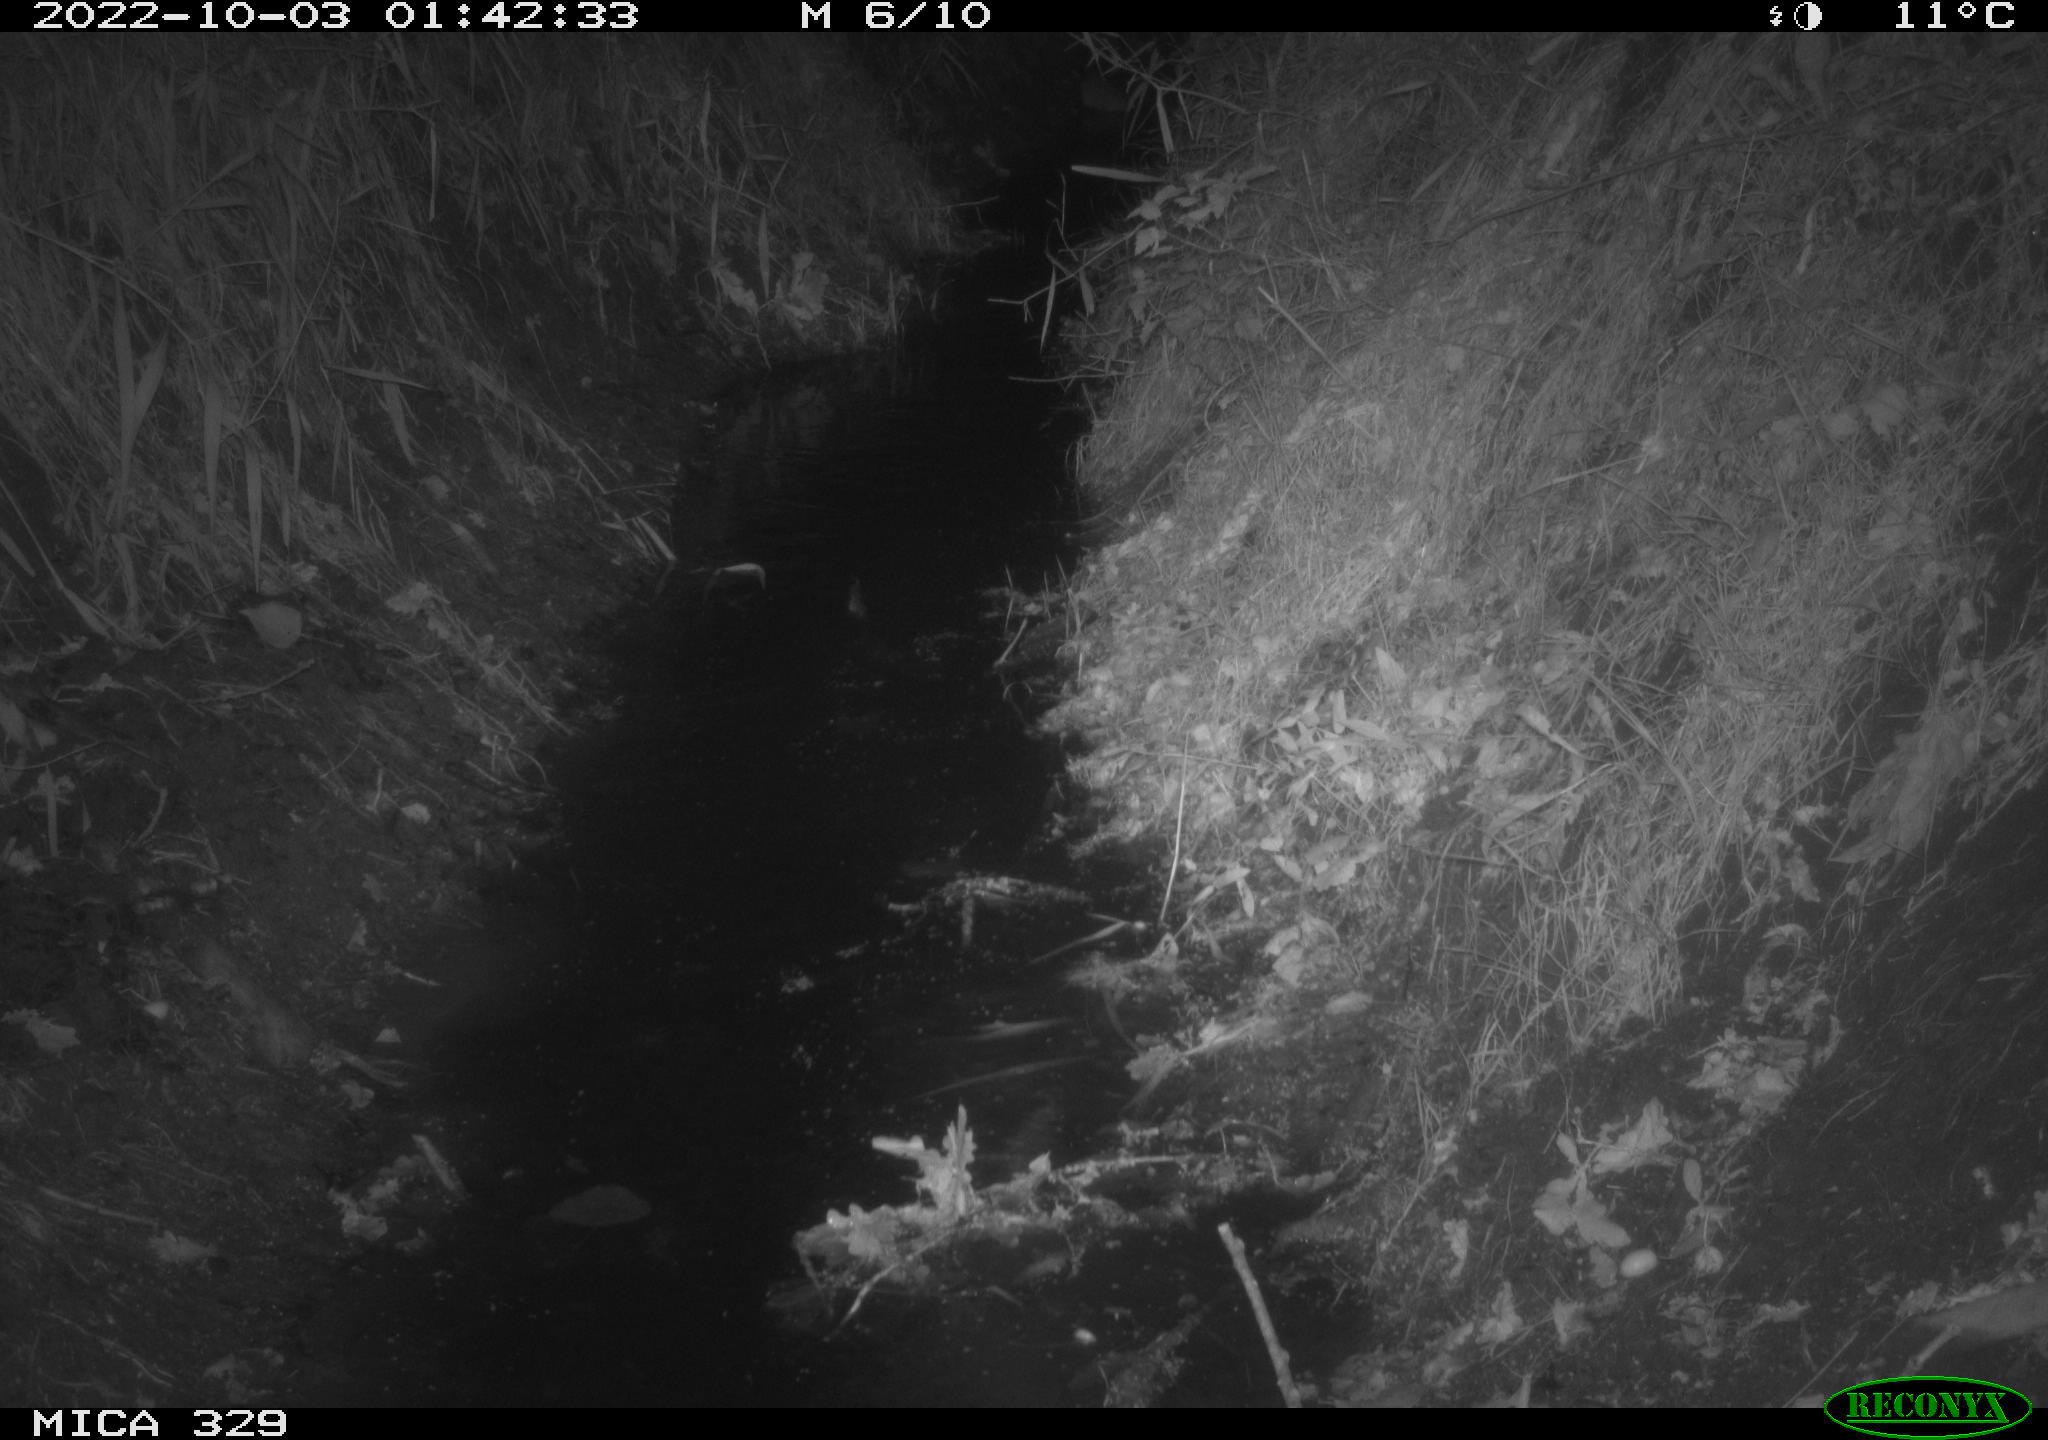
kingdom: Animalia
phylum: Chordata
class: Mammalia
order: Rodentia
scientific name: Rodentia
